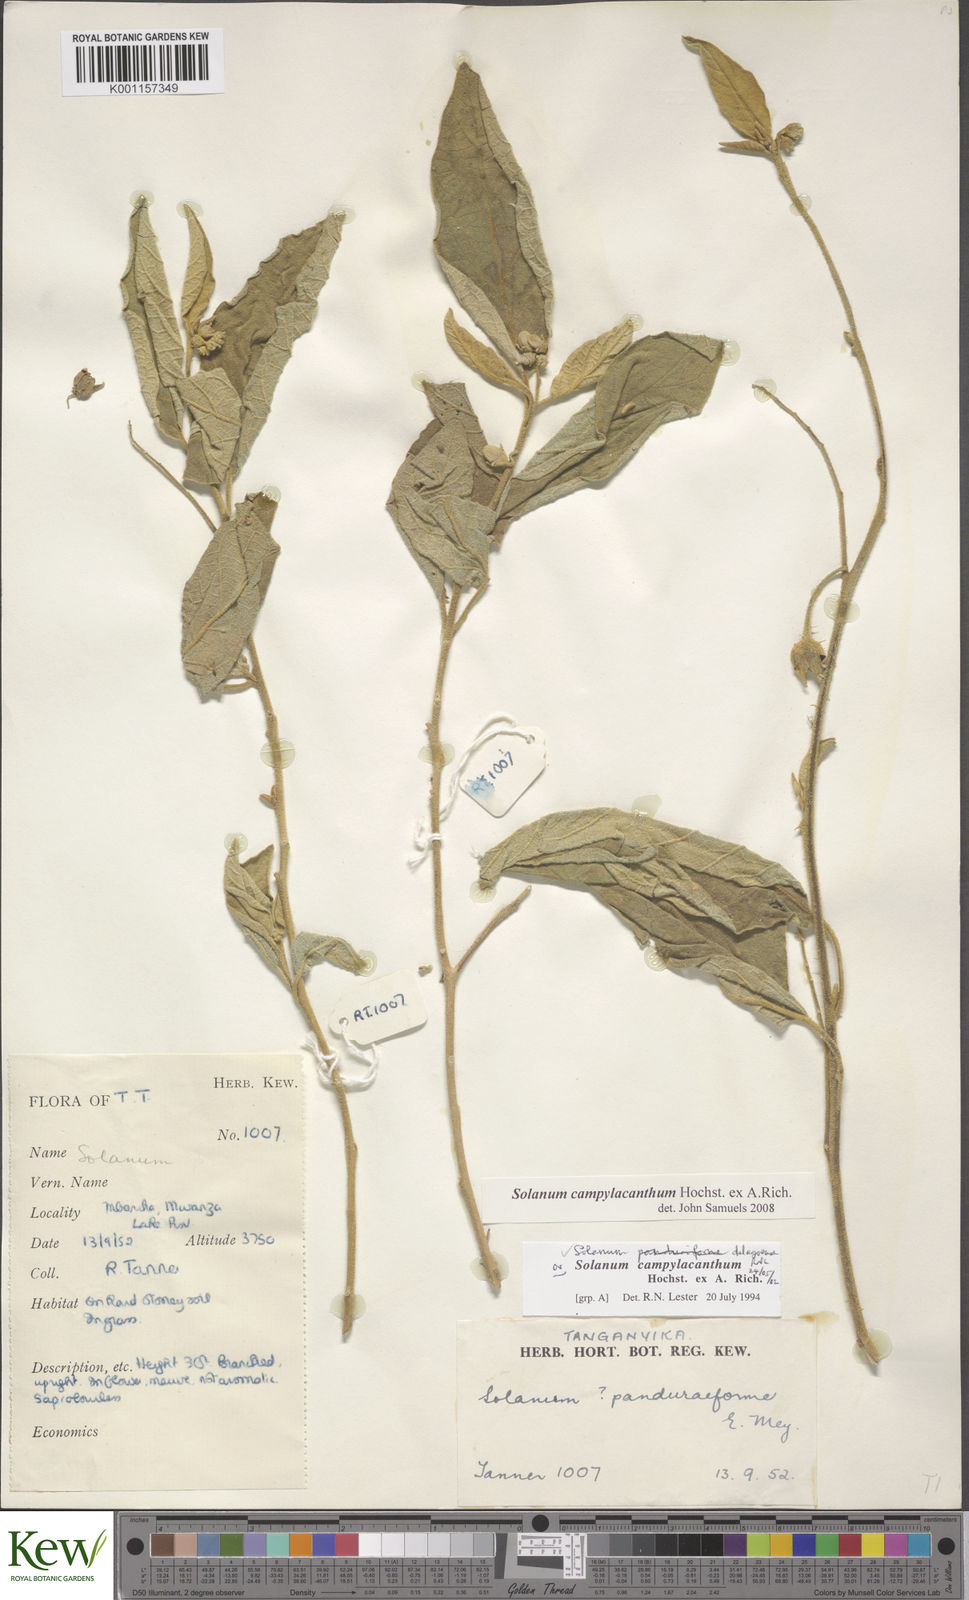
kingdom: Plantae
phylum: Tracheophyta
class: Magnoliopsida
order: Solanales
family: Solanaceae
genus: Solanum
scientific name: Solanum campylacanthum
